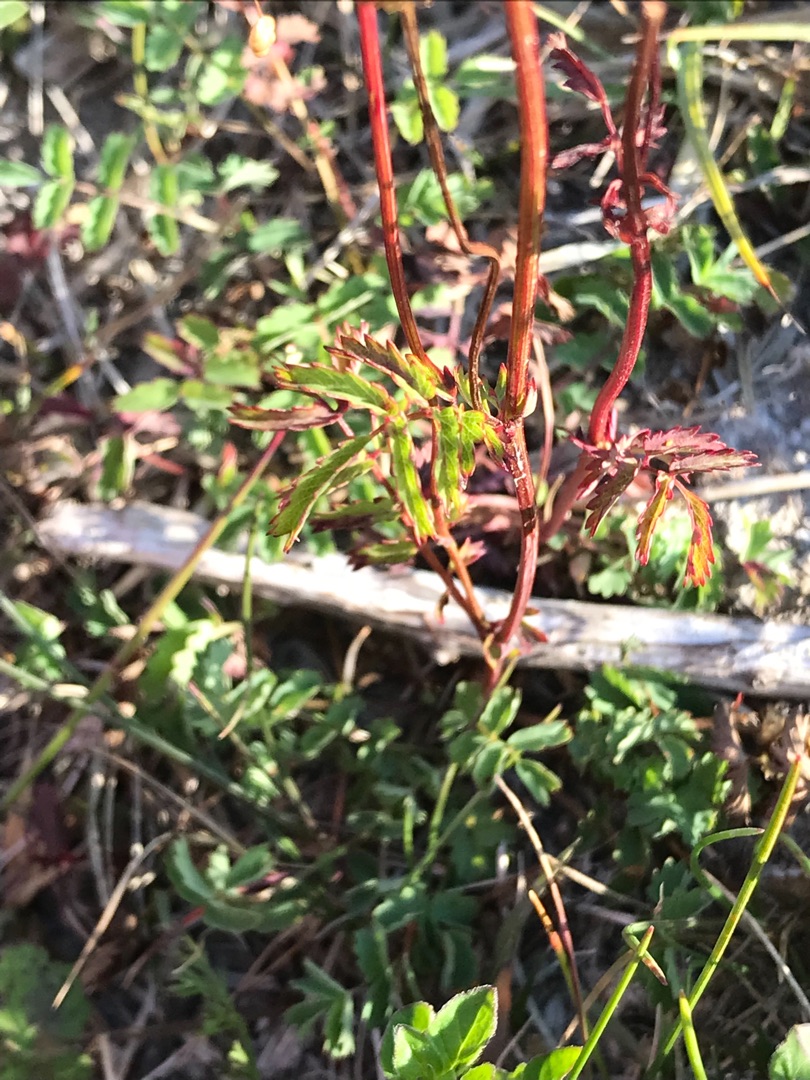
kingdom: Plantae
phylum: Tracheophyta
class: Magnoliopsida
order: Rosales
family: Rosaceae
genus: Poterium
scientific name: Poterium sanguisorba
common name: Bibernelle
